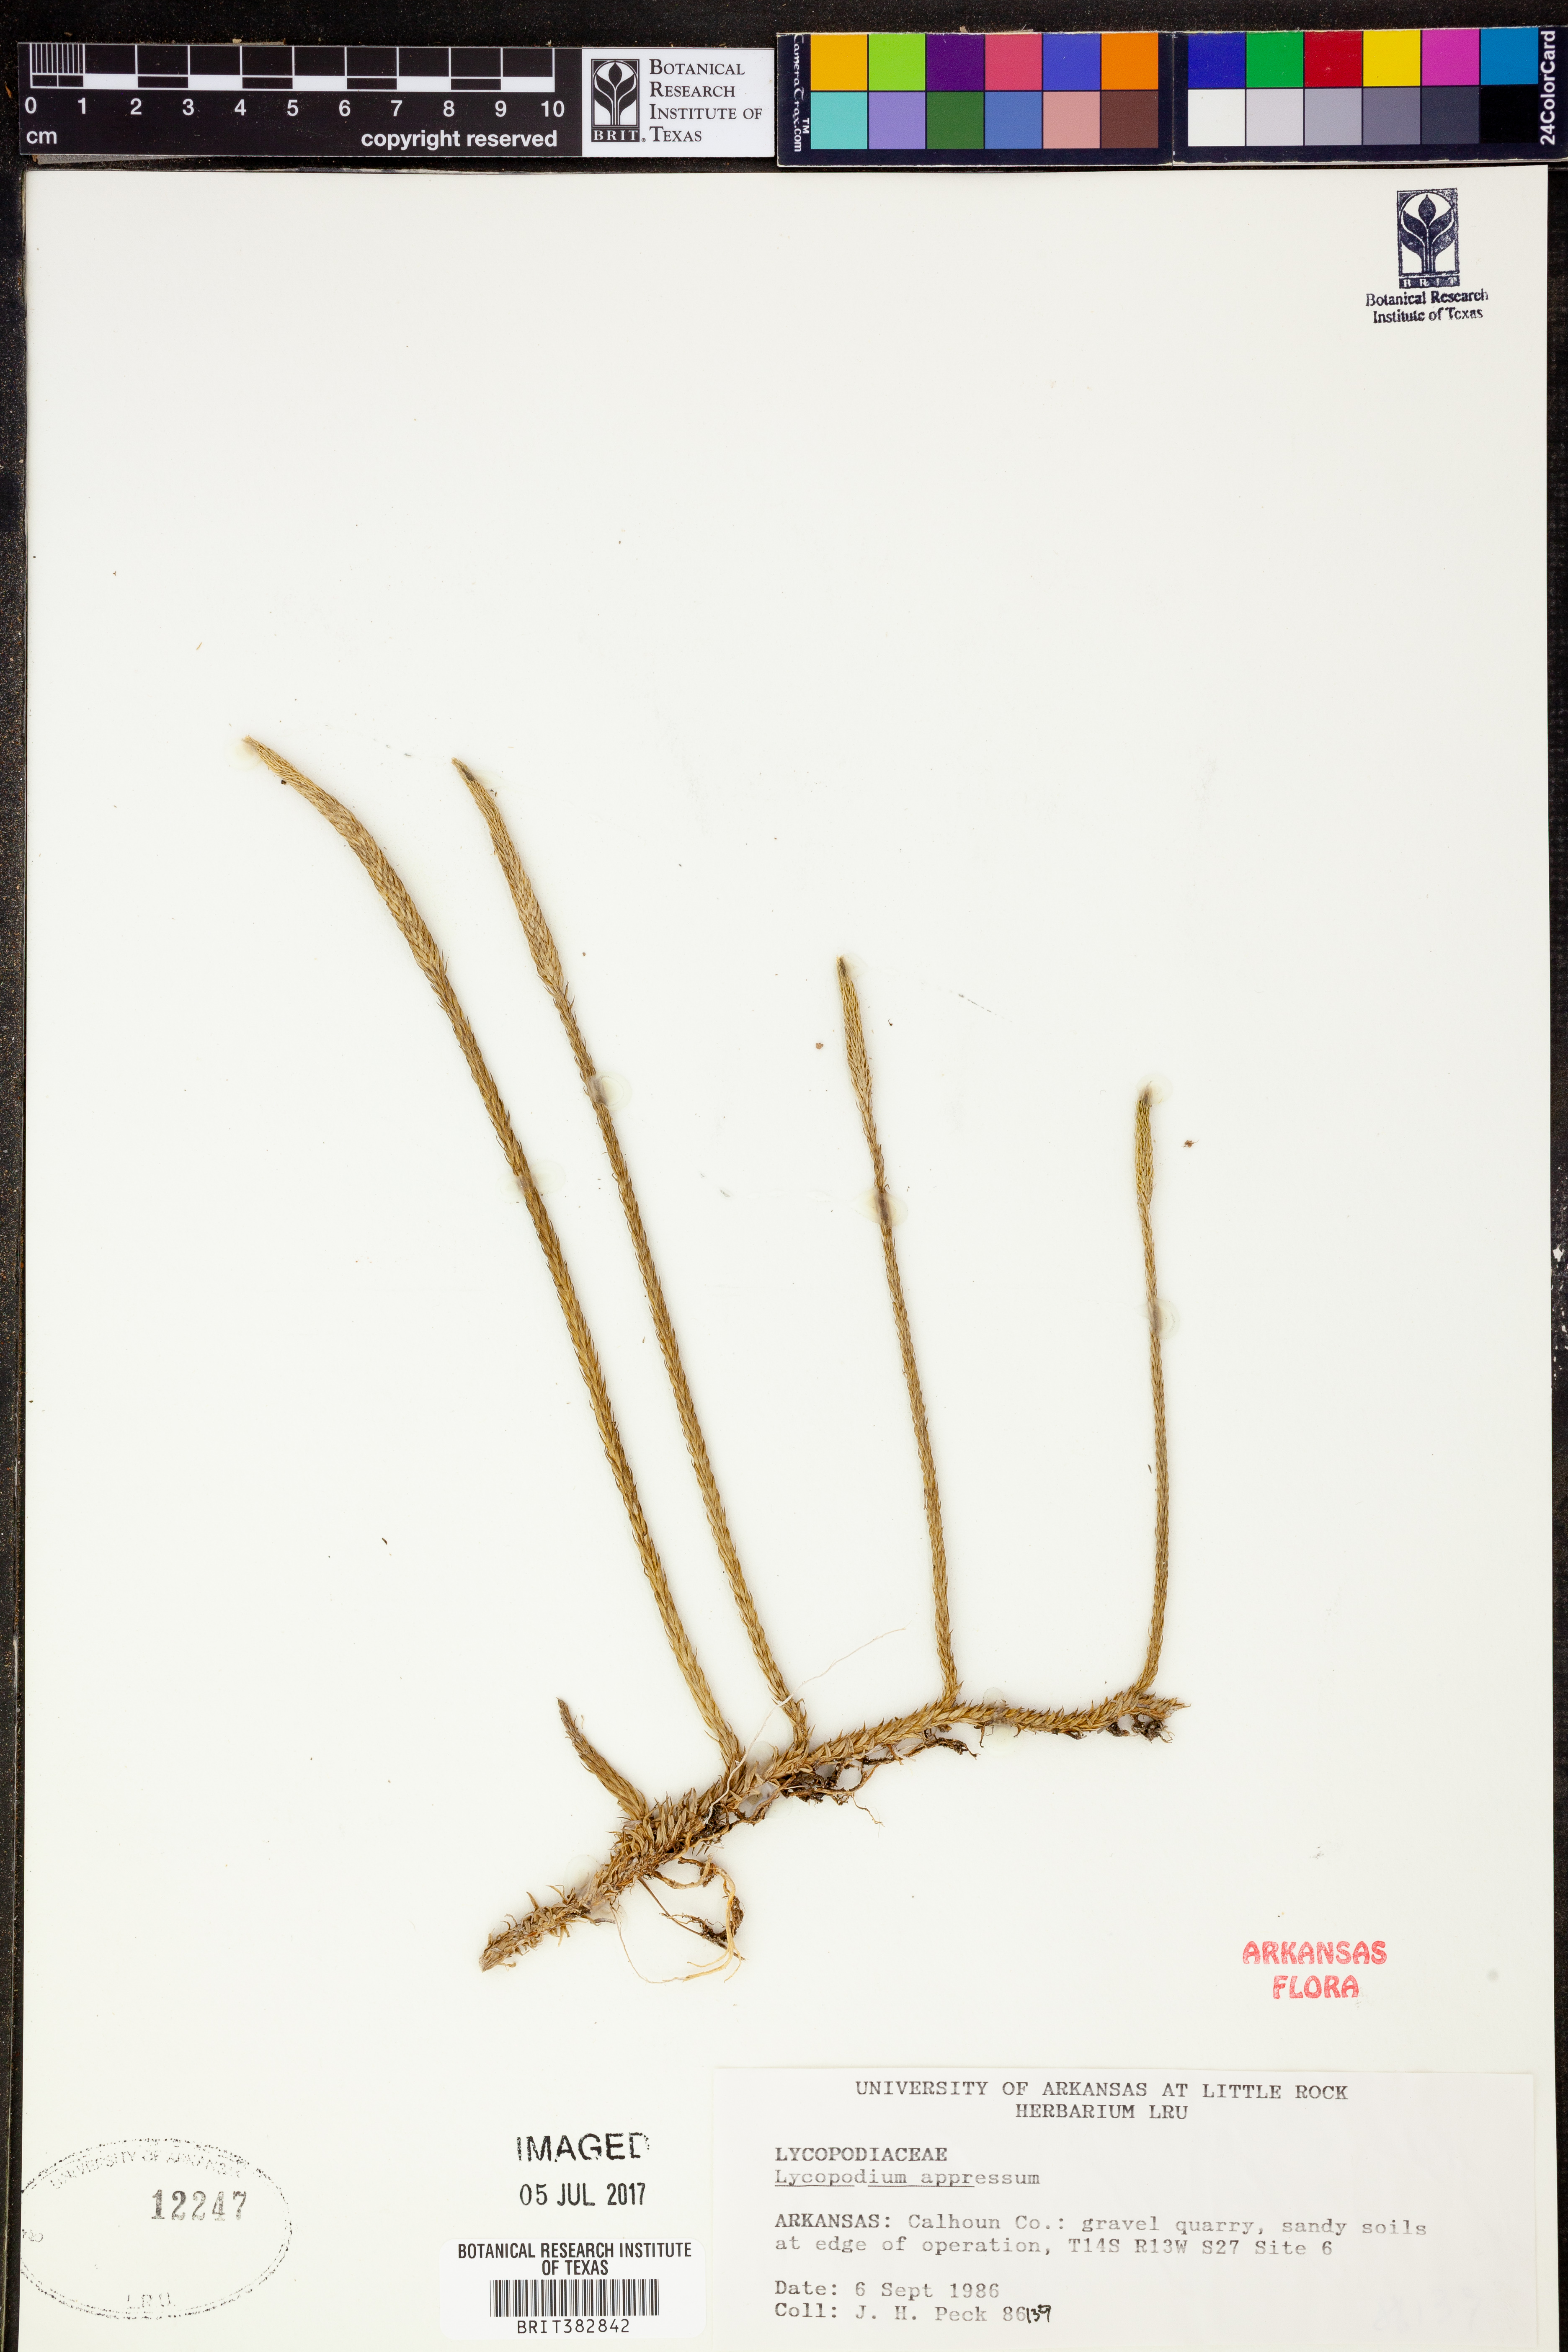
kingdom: Plantae
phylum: Tracheophyta
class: Lycopodiopsida
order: Lycopodiales
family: Lycopodiaceae
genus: Lycopodiella
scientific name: Lycopodiella appressa
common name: Appressed bog clubmoss
